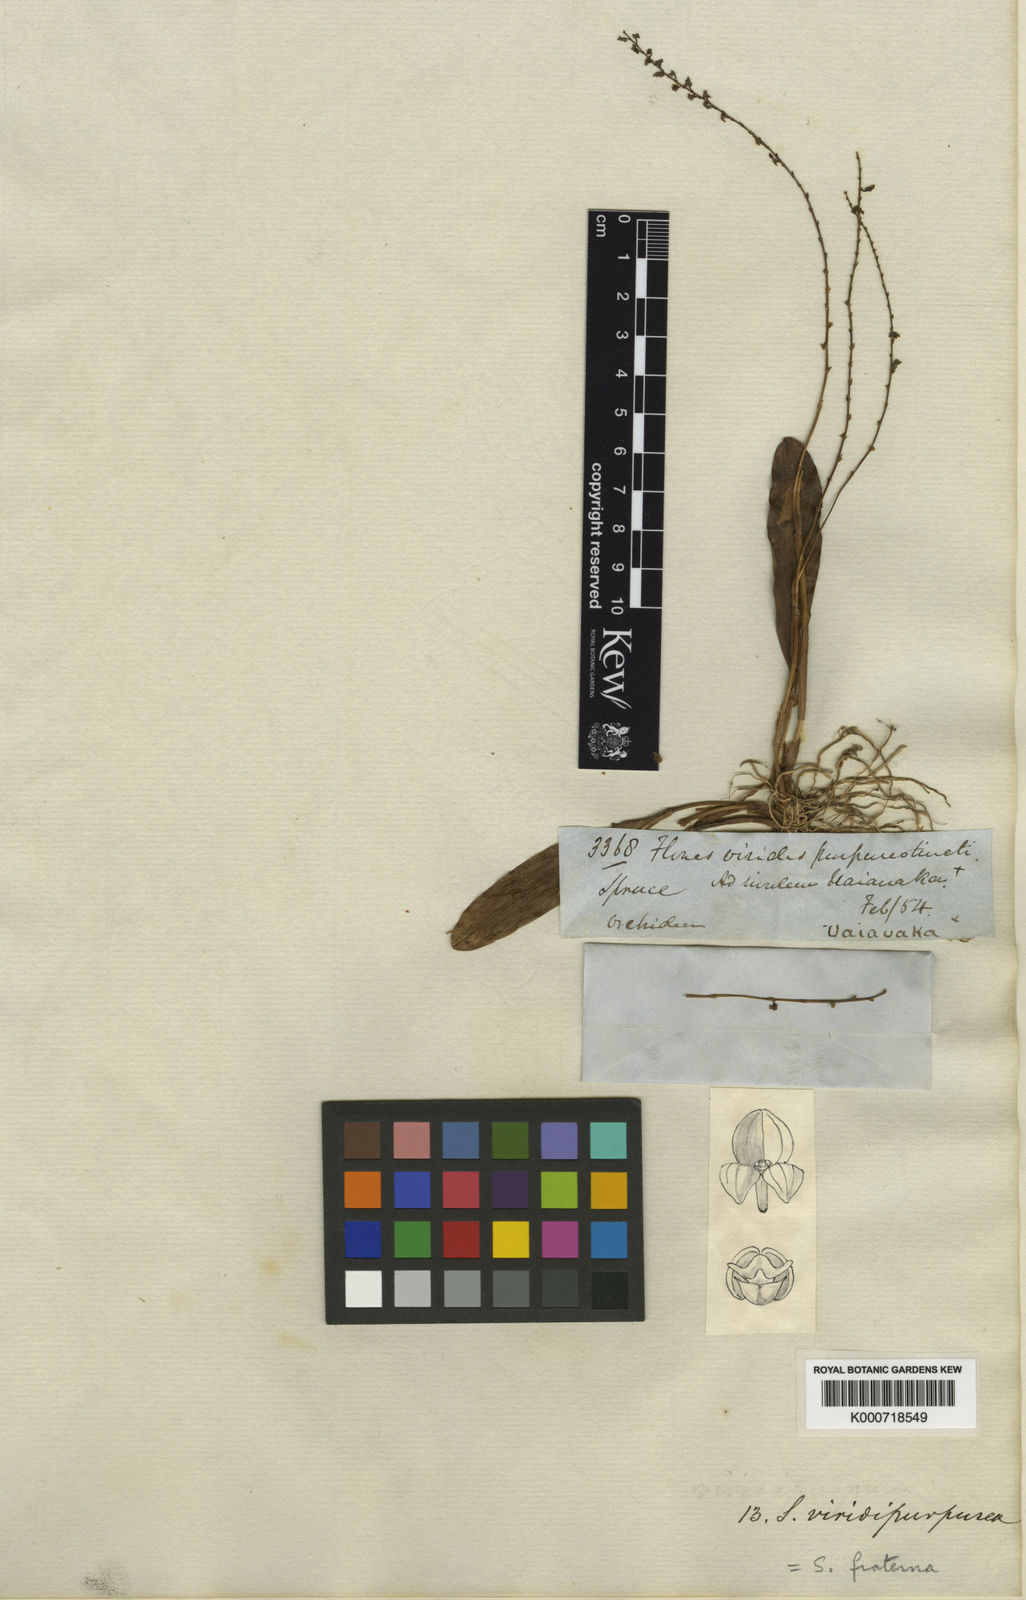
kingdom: Plantae
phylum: Tracheophyta
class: Liliopsida
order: Asparagales
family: Orchidaceae
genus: Stelis
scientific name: Stelis papaquerensis
